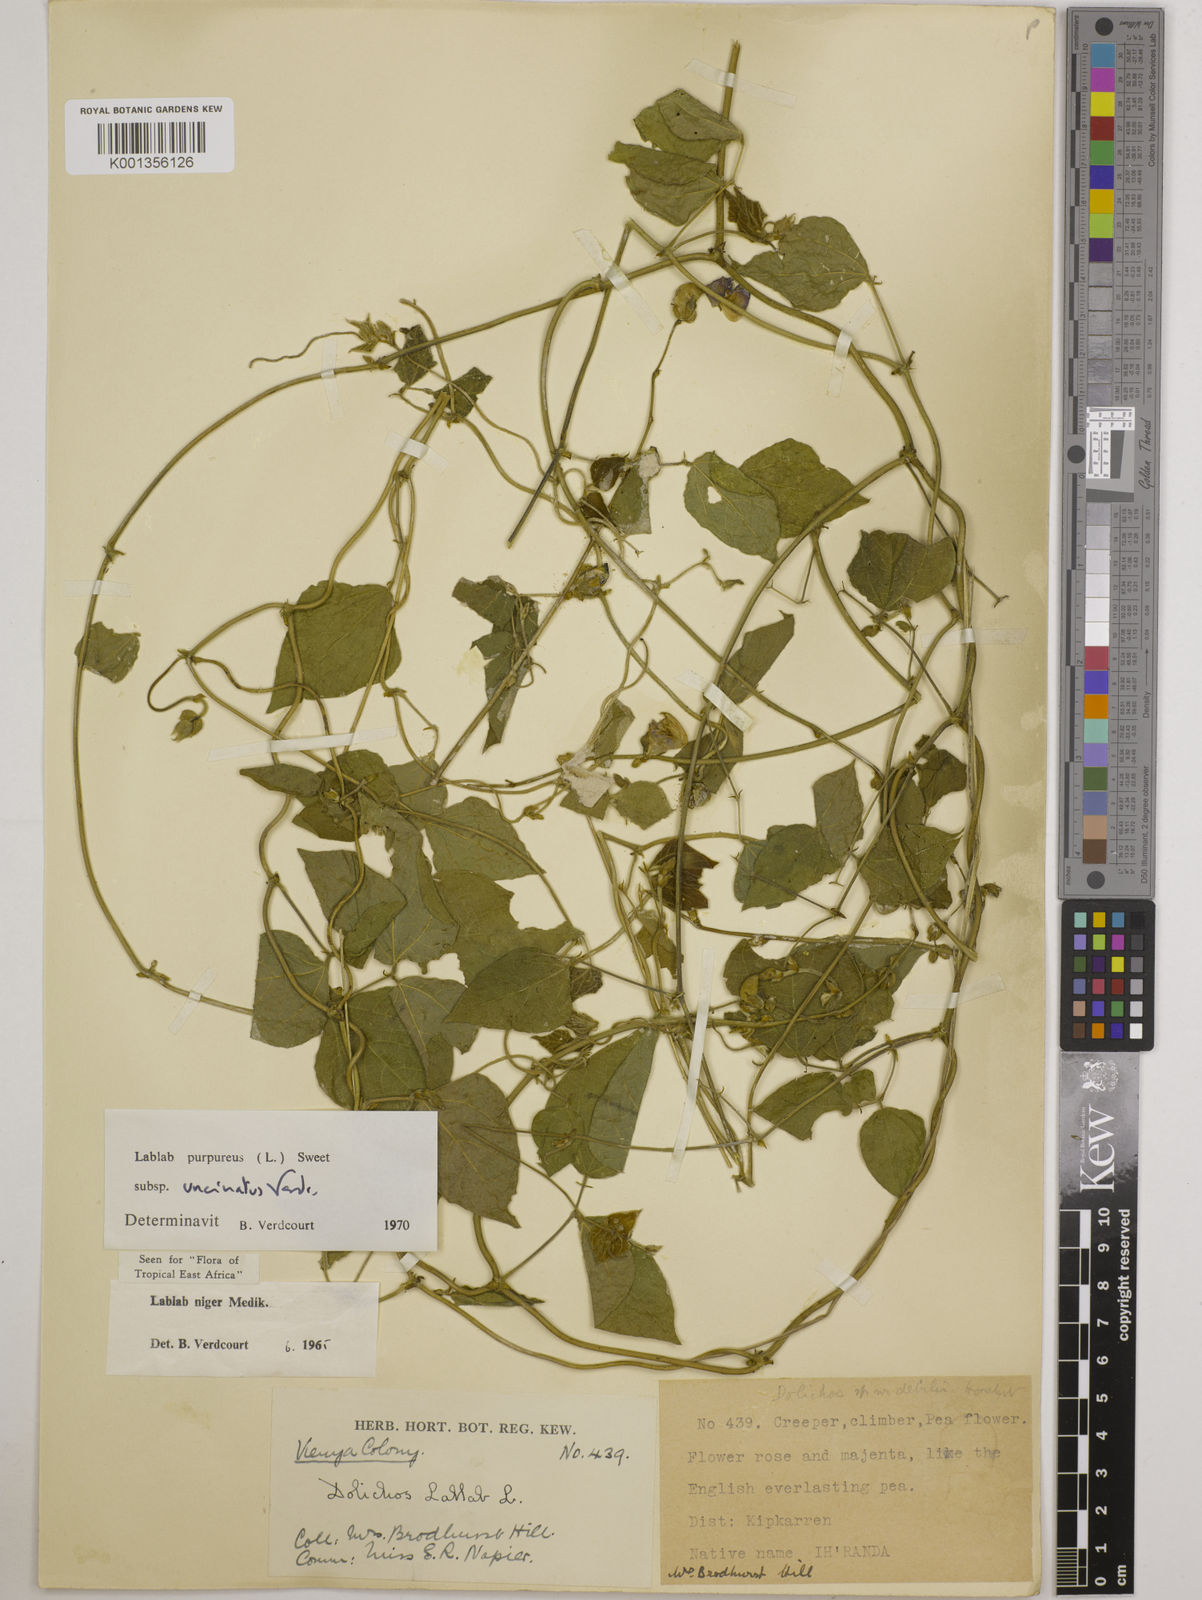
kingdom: Plantae
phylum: Tracheophyta
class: Magnoliopsida
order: Fabales
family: Fabaceae
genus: Lablab
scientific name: Lablab purpureus
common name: Lablab-bean
